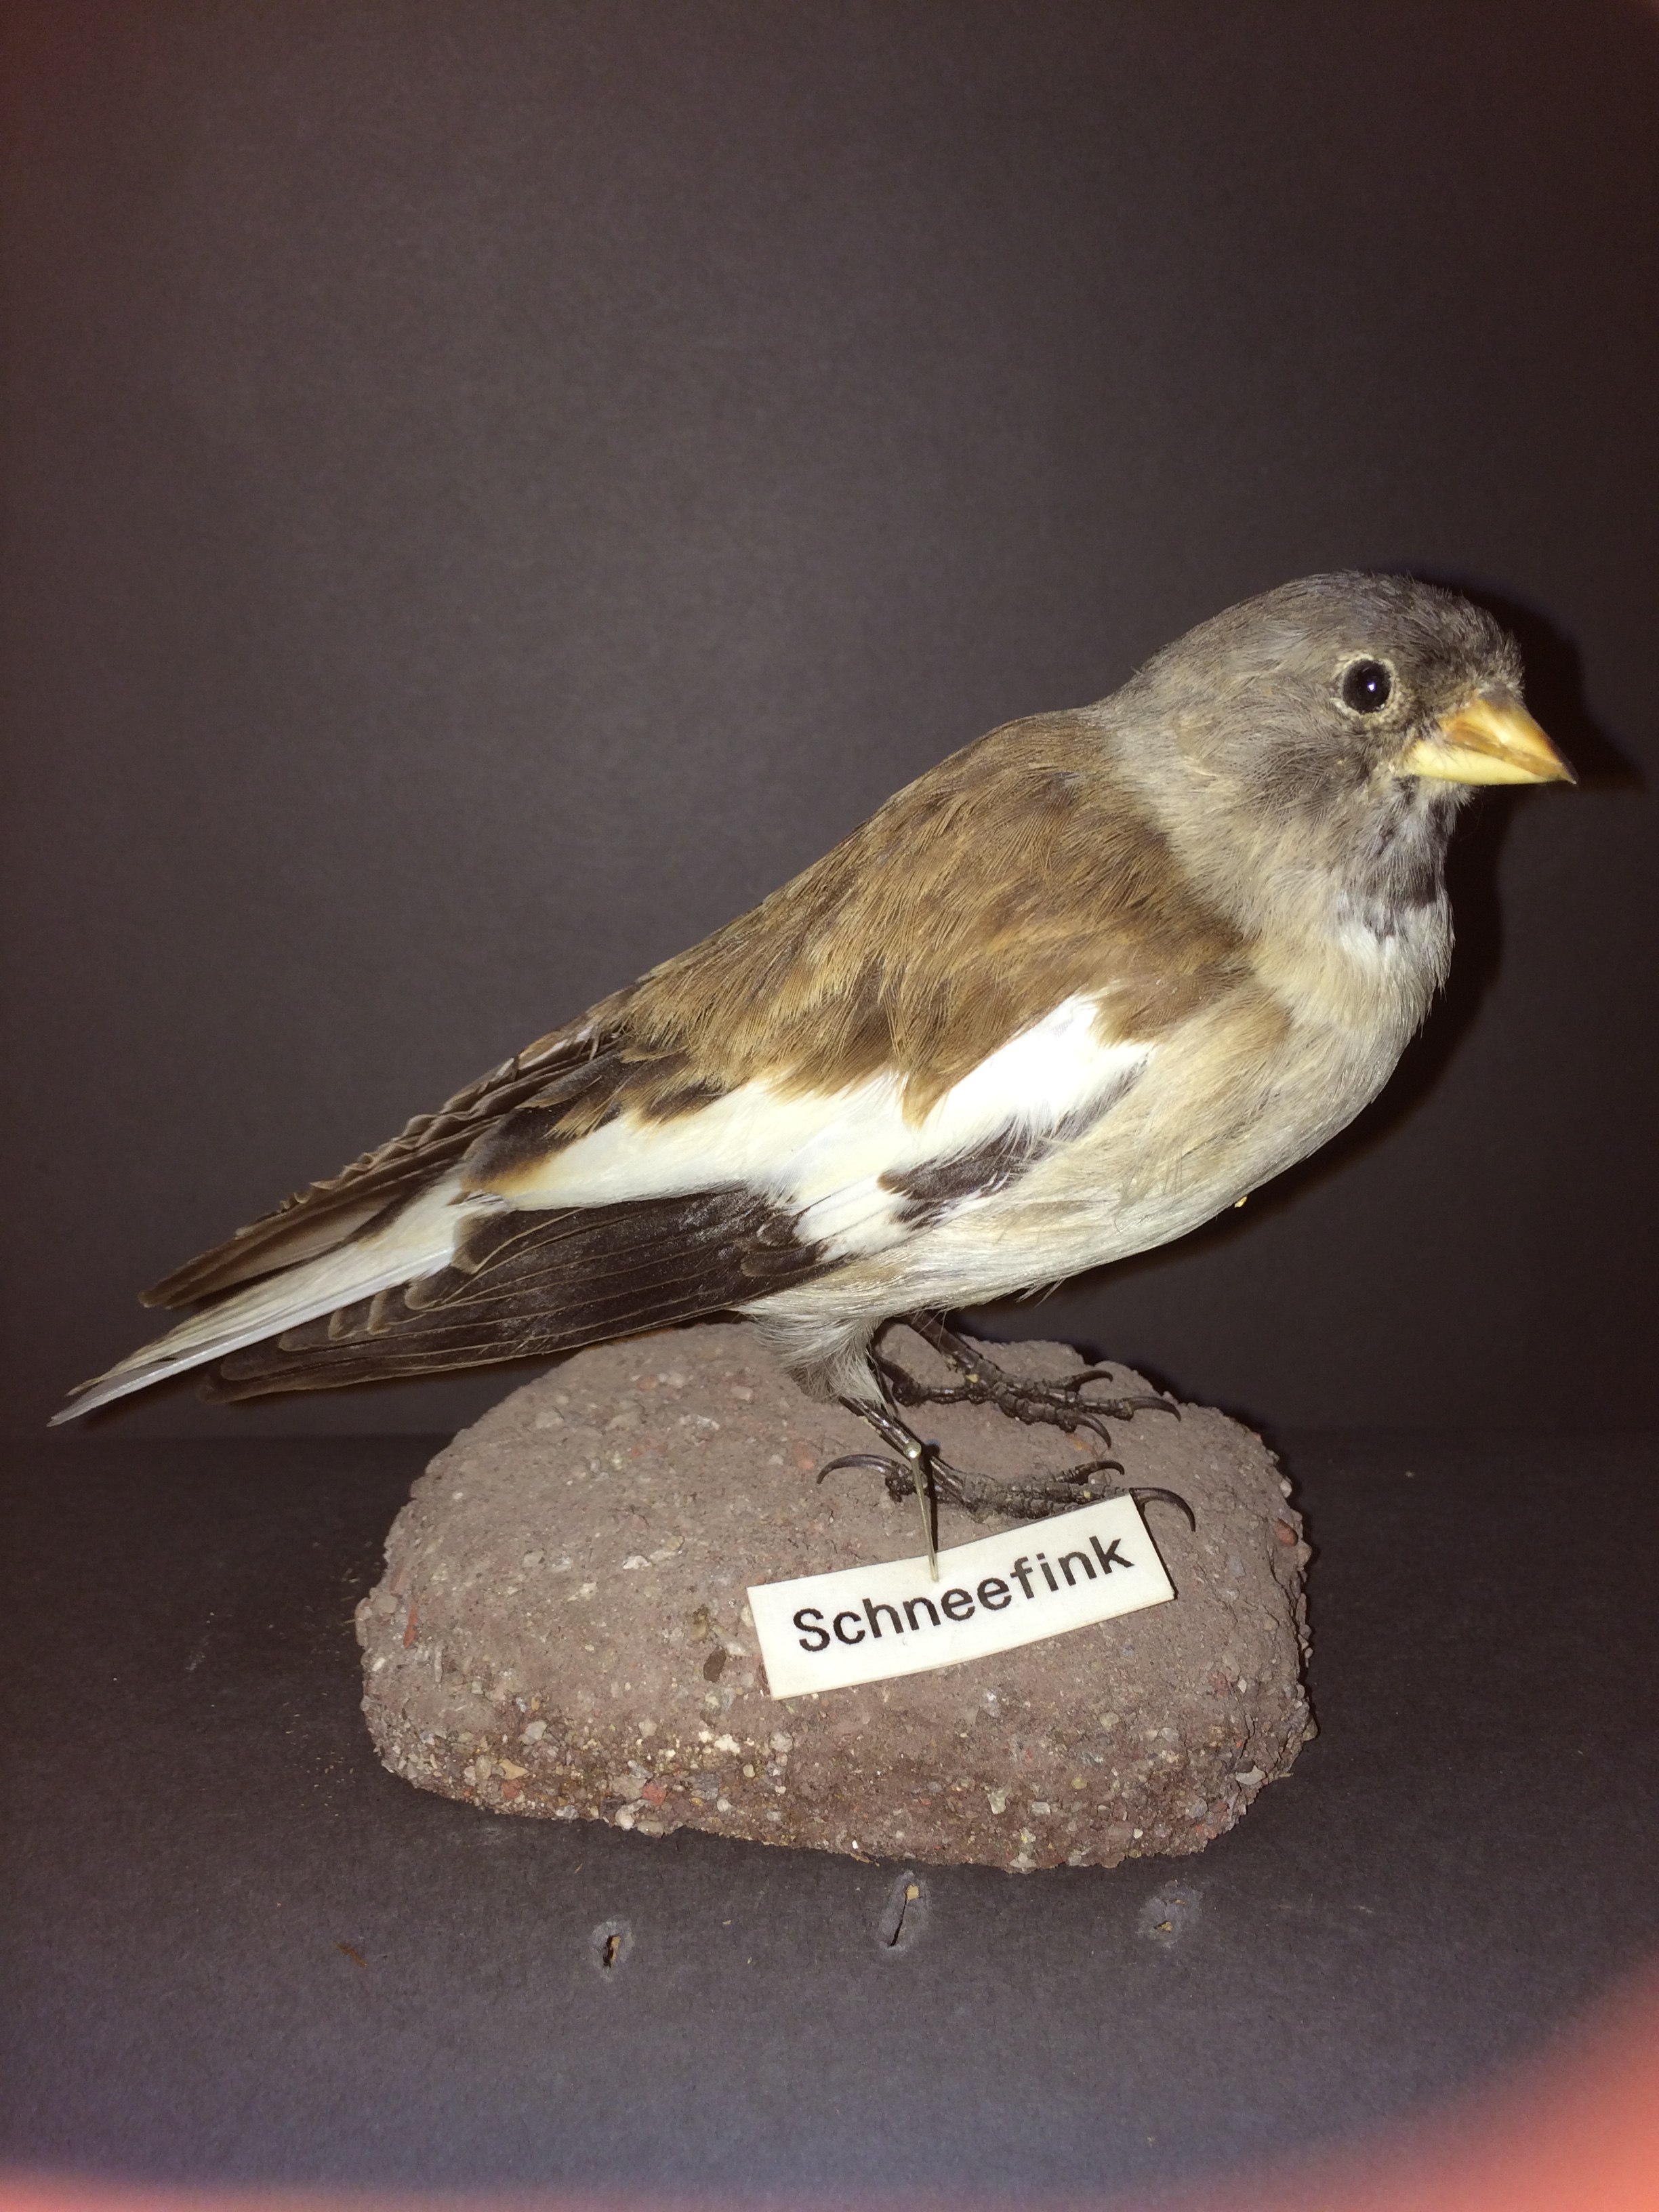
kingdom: Animalia
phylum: Chordata
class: Aves
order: Passeriformes
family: Passeridae
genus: Montifringilla
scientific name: Montifringilla nivalis
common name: White-winged snowfinch
